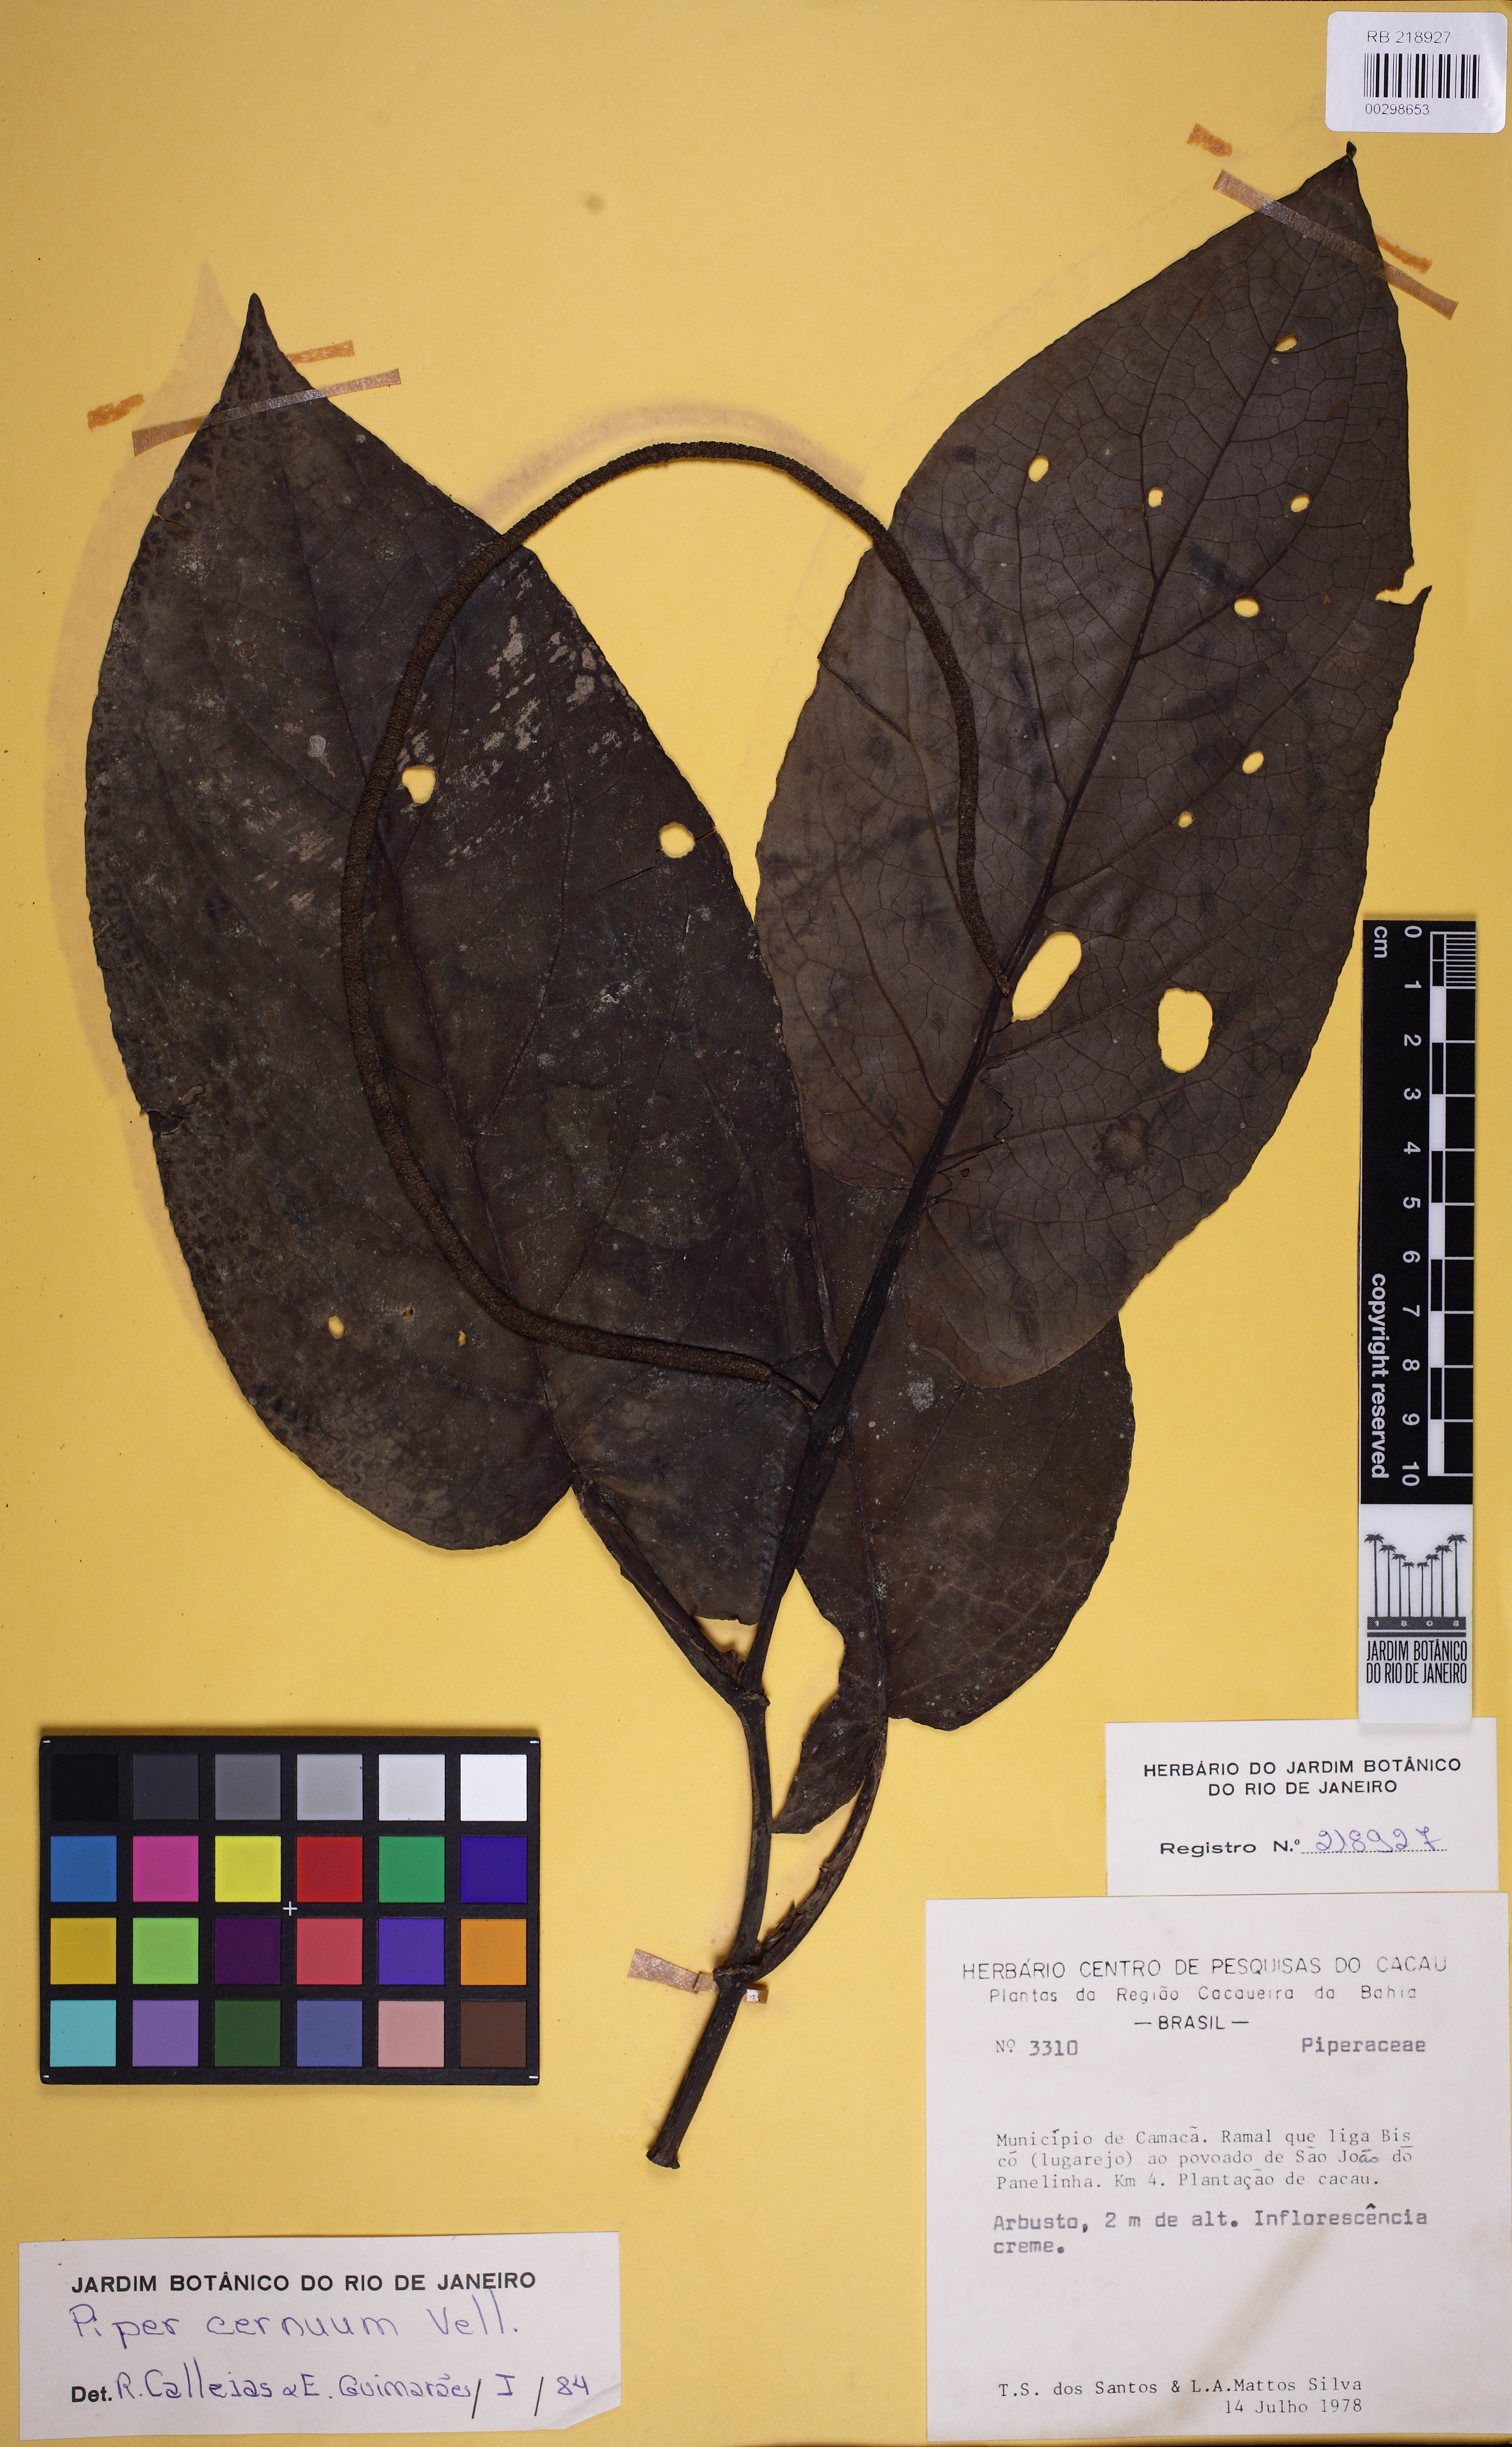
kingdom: Plantae
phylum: Tracheophyta
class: Magnoliopsida
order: Piperales
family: Piperaceae
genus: Piper
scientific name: Piper cernuum
